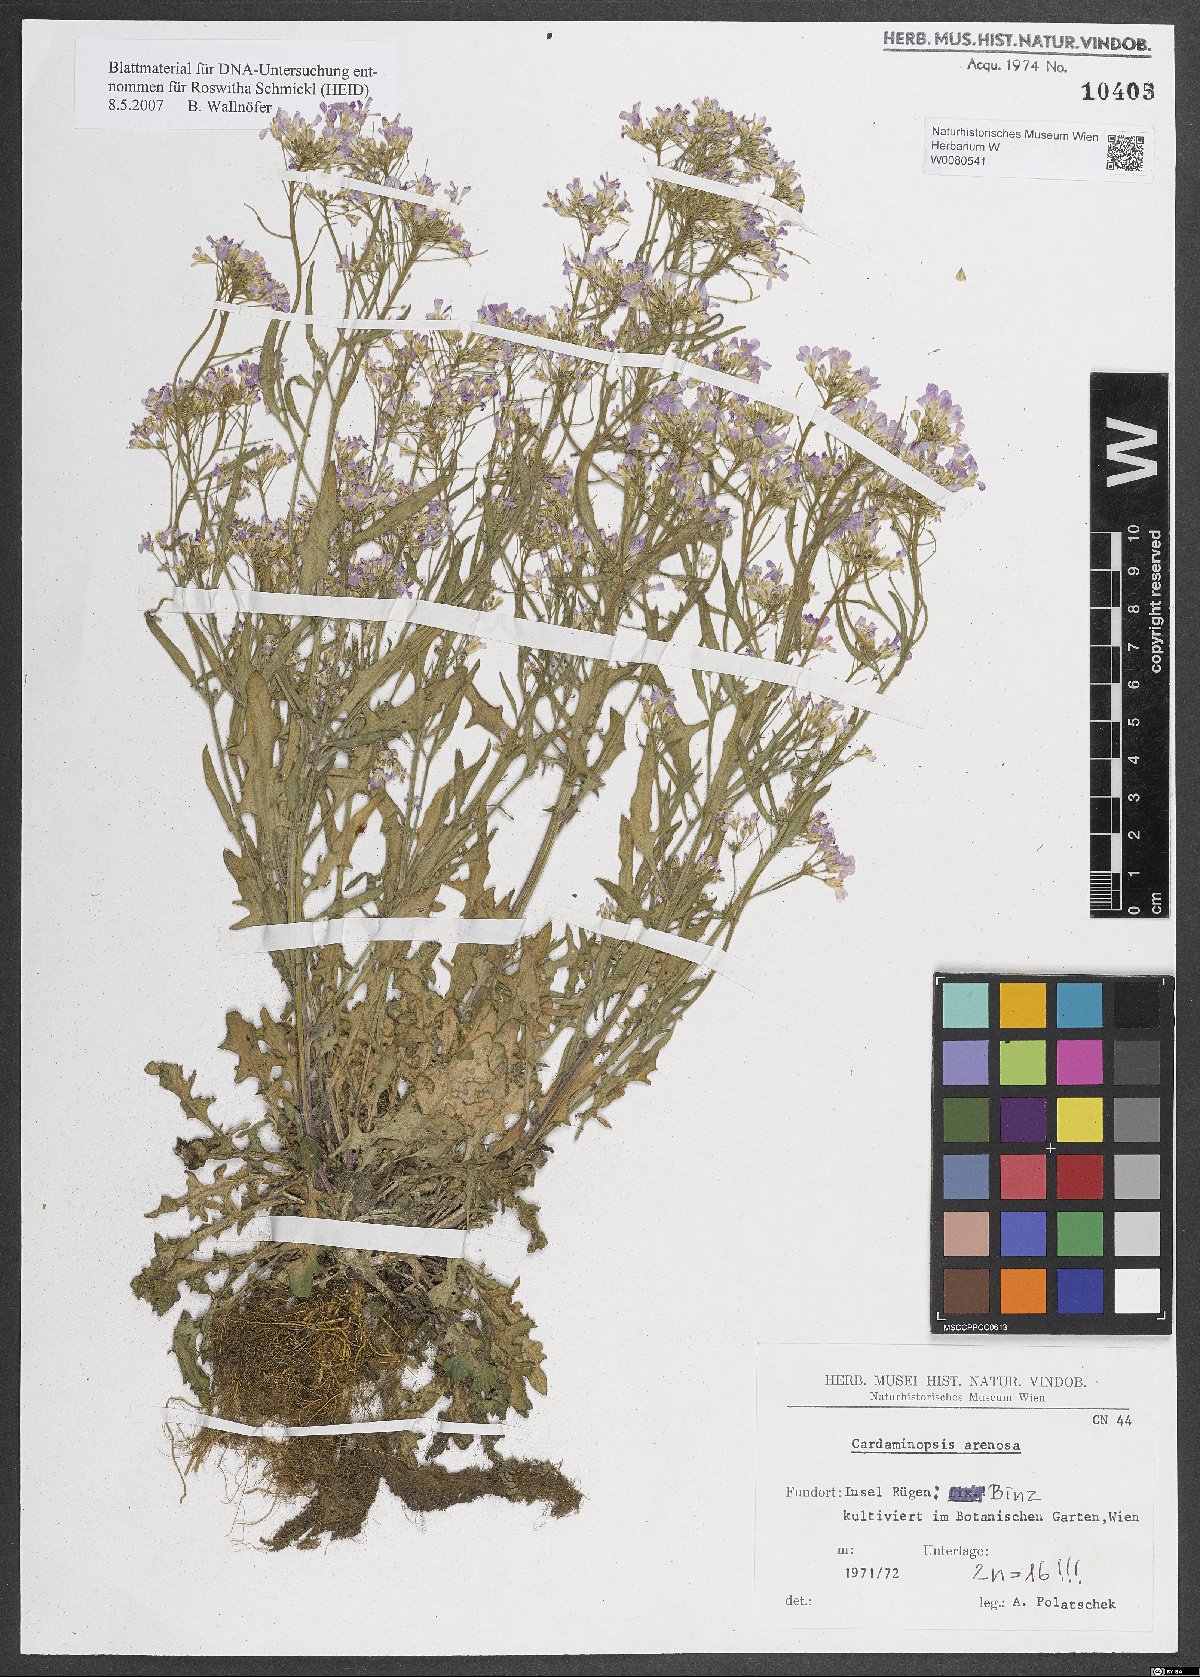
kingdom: Plantae
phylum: Tracheophyta
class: Magnoliopsida
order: Brassicales
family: Brassicaceae
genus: Arabidopsis
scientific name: Arabidopsis arenosa
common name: Sand rock-cress
